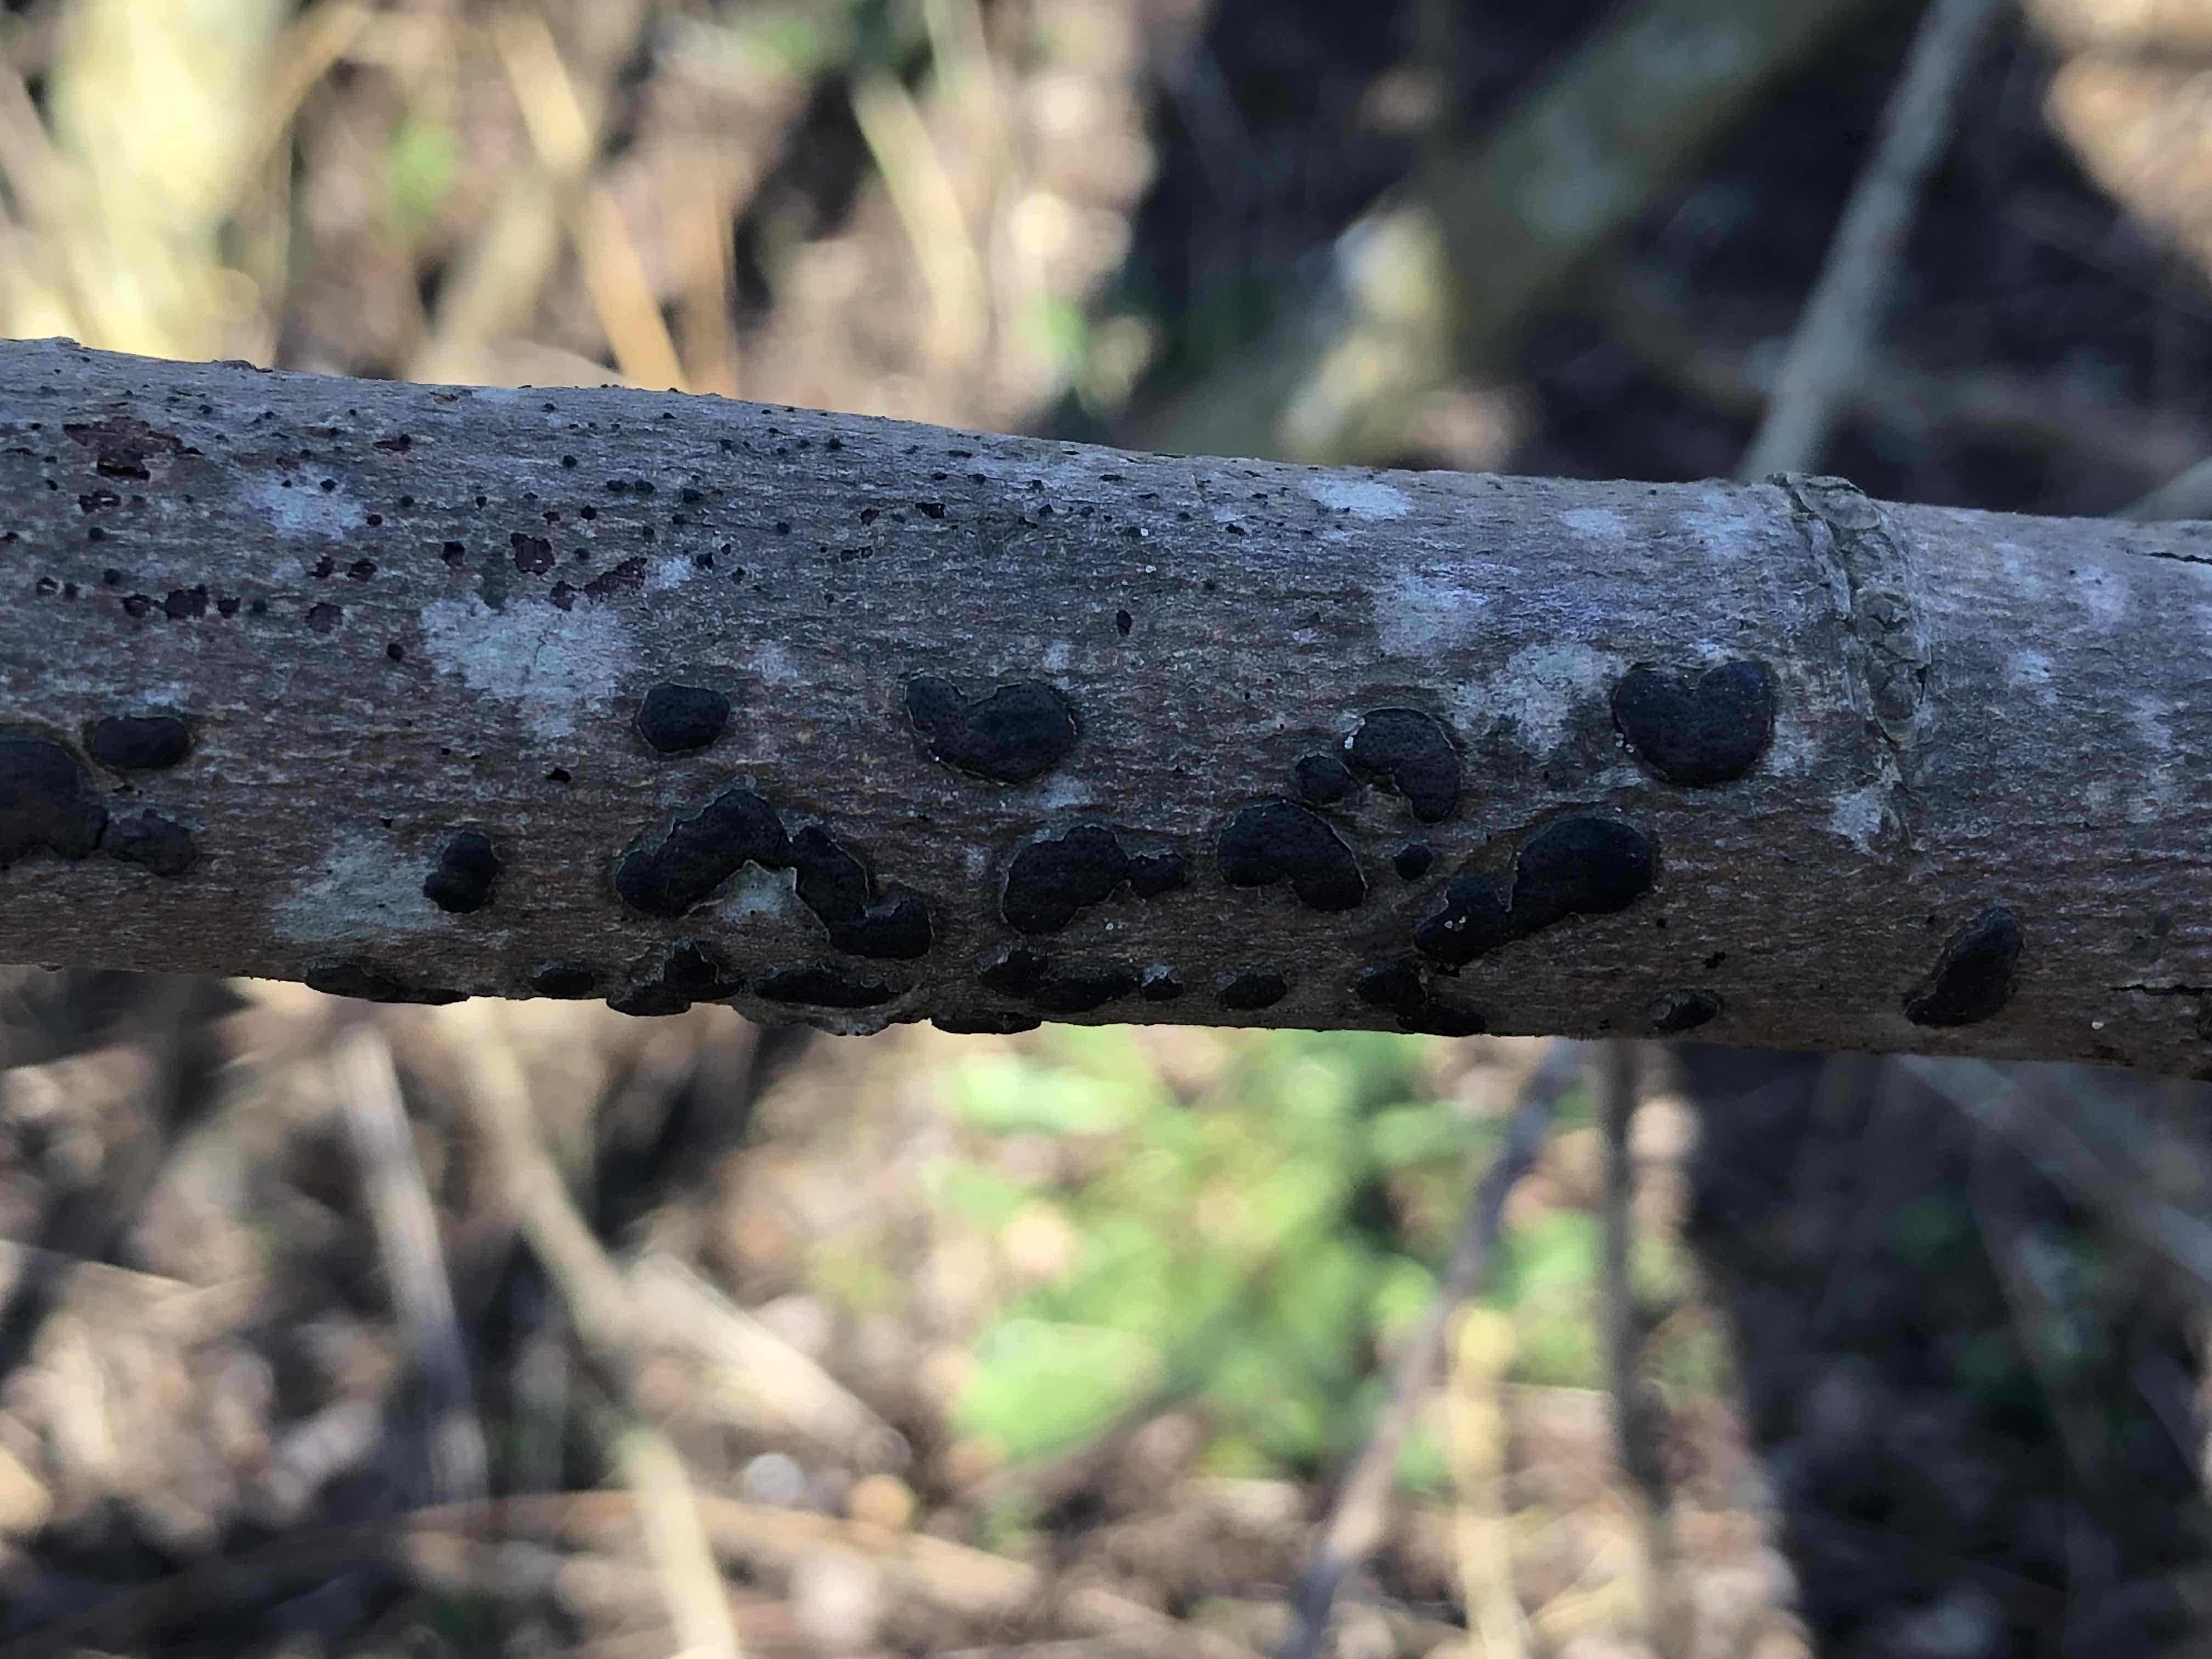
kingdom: Fungi
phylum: Ascomycota
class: Sordariomycetes
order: Xylariales
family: Diatrypaceae
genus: Diatrype
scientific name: Diatrype bullata
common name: pile-kulskorpe
